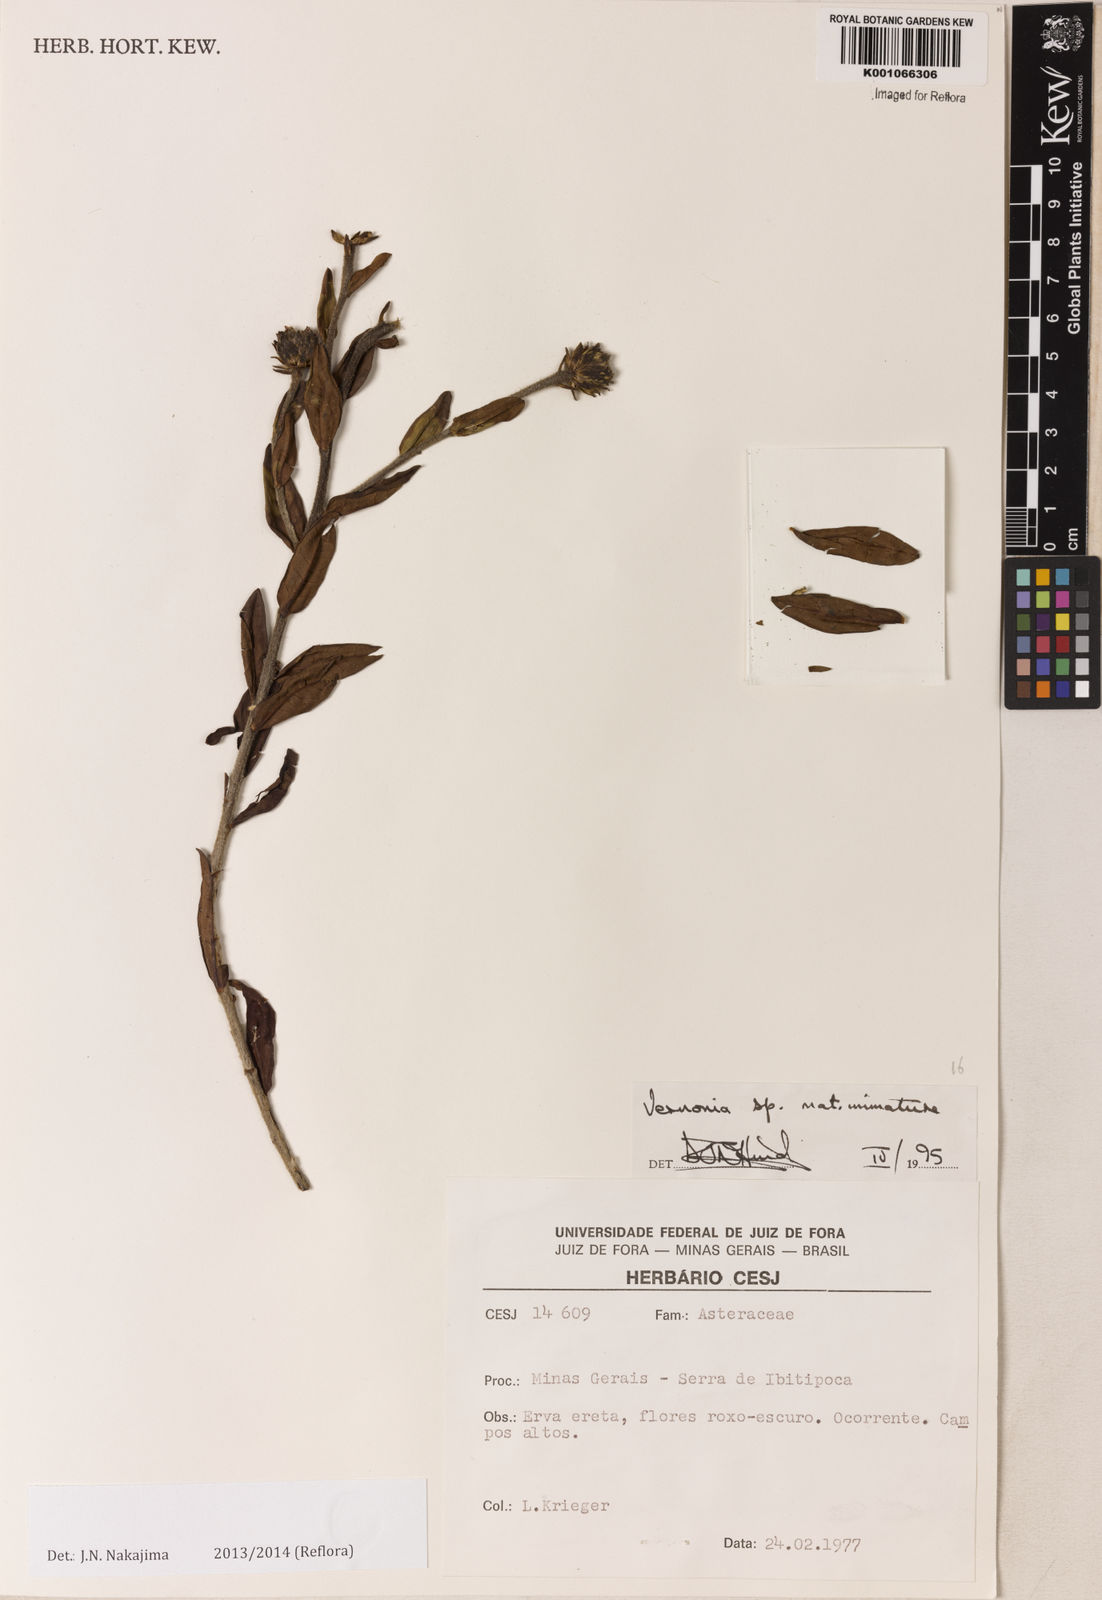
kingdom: Plantae
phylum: Tracheophyta
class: Magnoliopsida
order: Asterales
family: Asteraceae
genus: Lessingianthus
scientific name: Lessingianthus ibitipocensis
